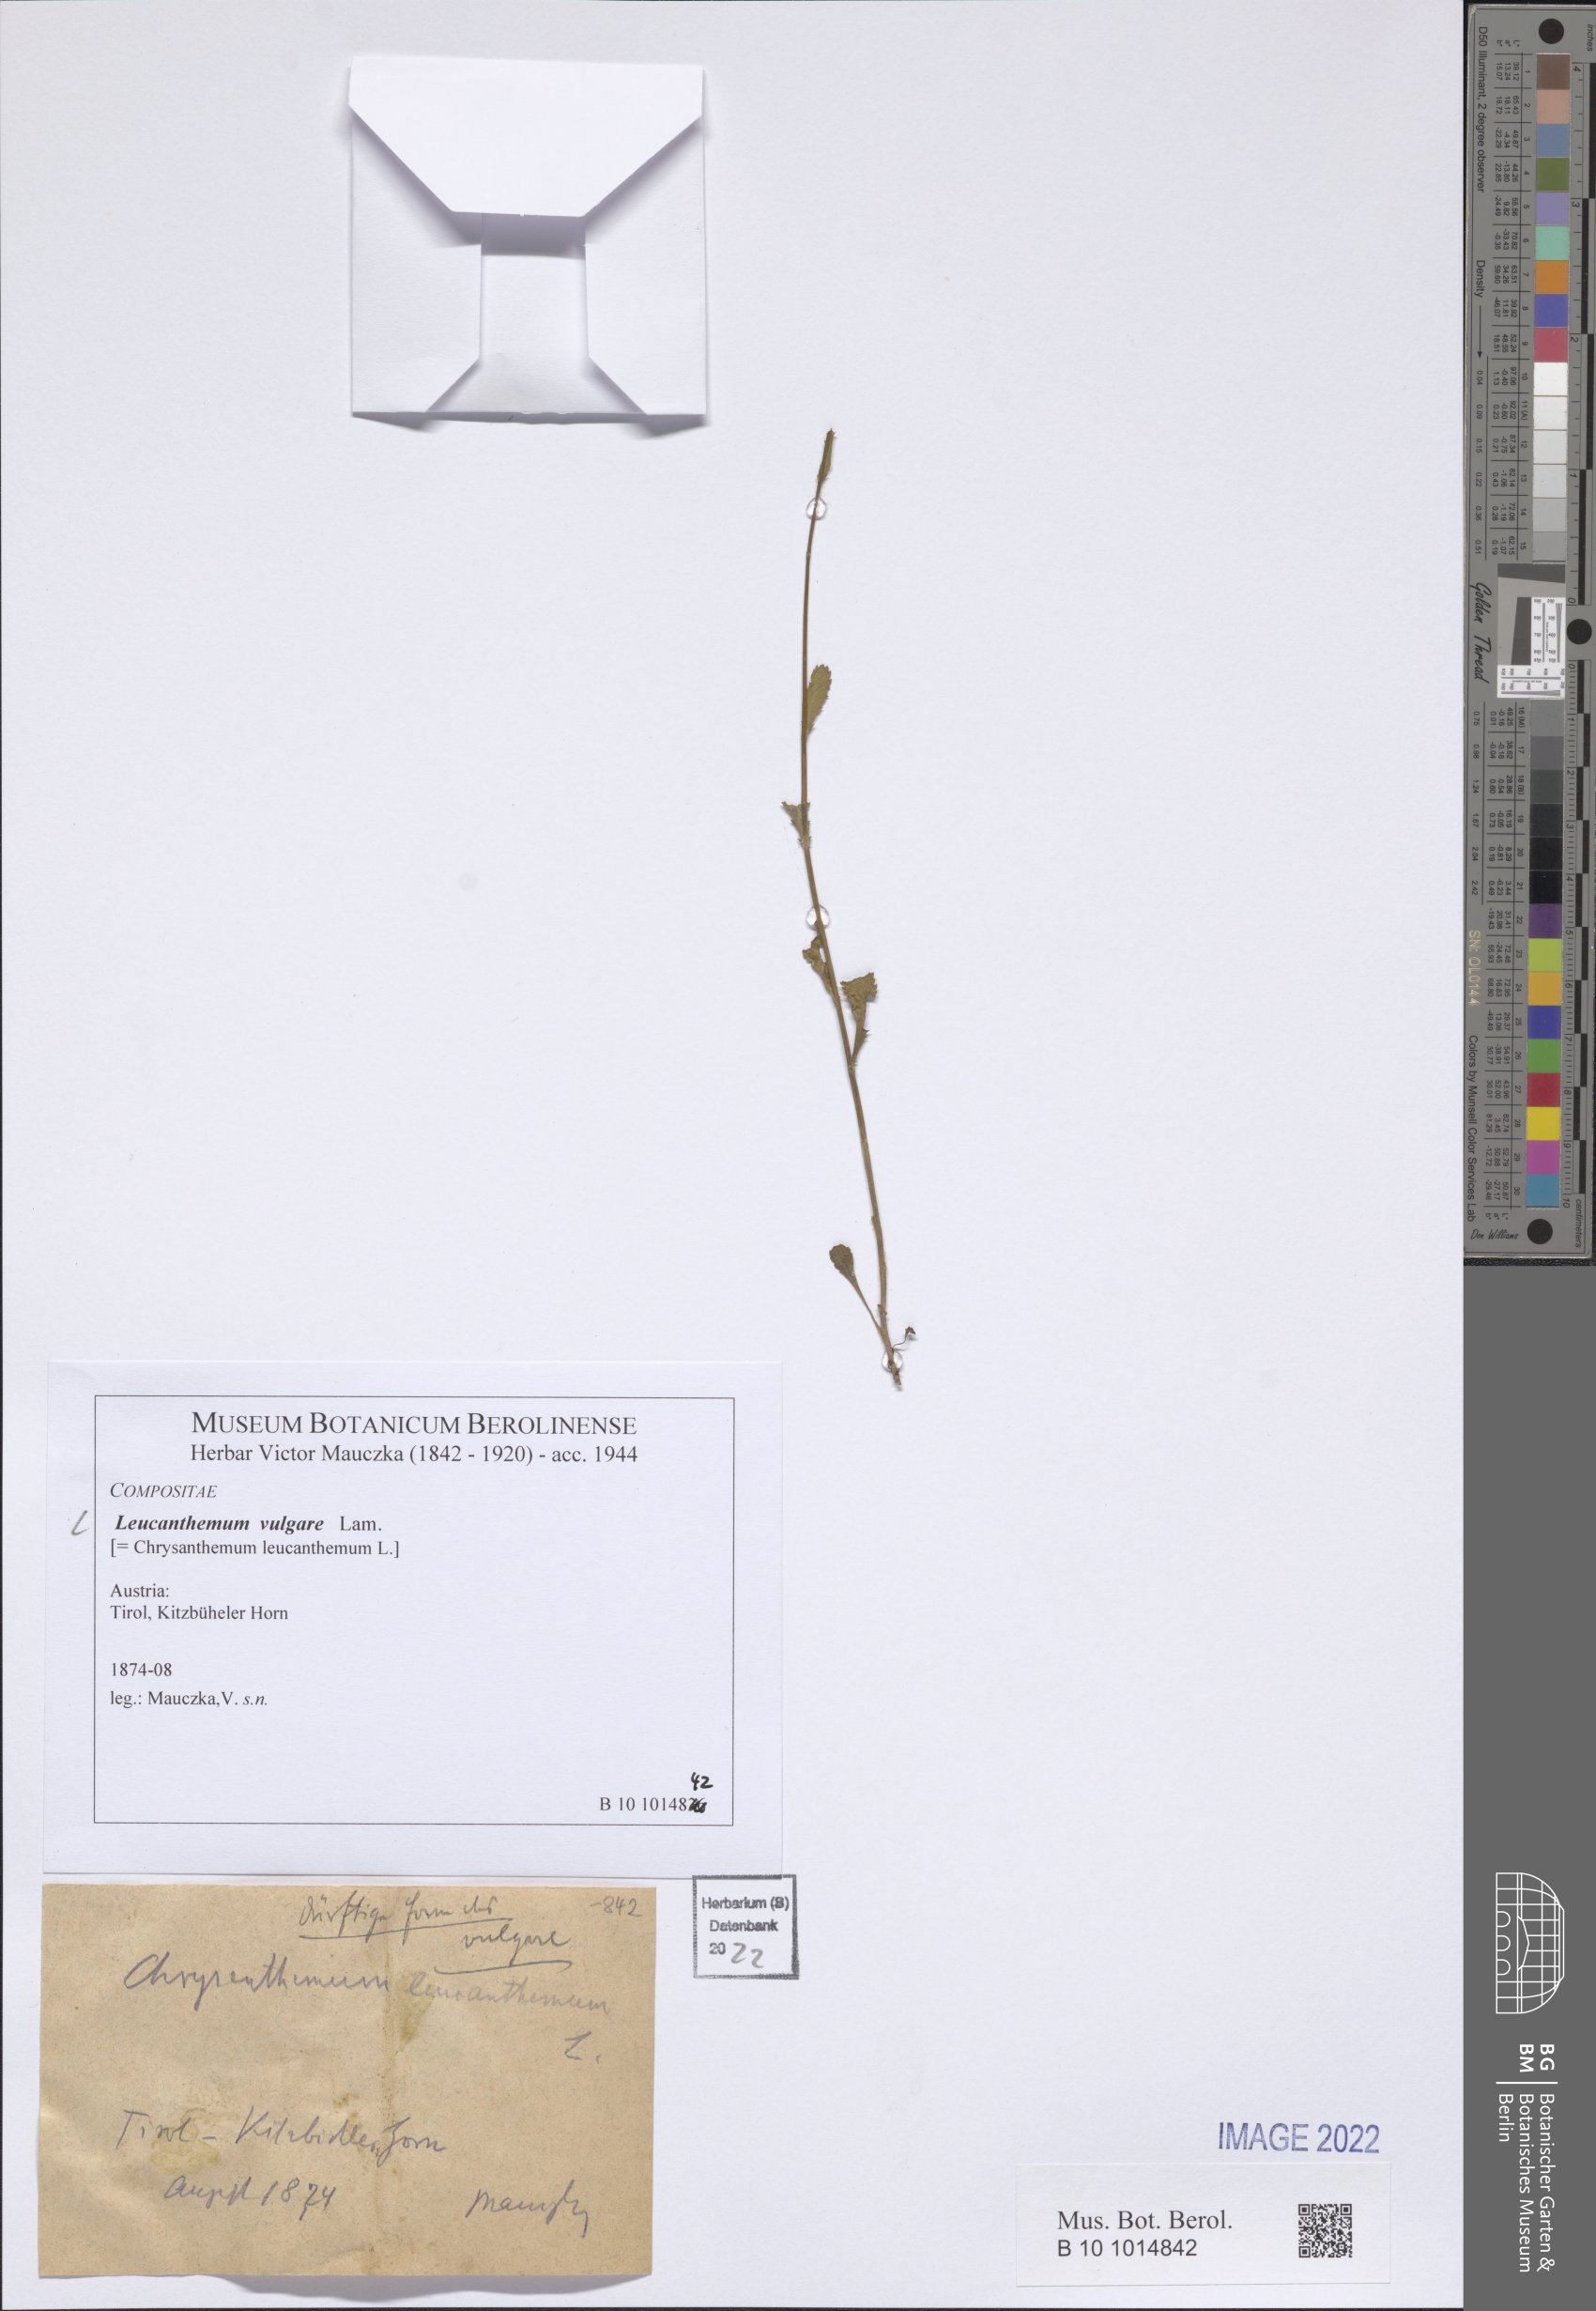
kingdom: Plantae
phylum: Tracheophyta
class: Magnoliopsida
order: Asterales
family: Asteraceae
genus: Leucanthemum
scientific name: Leucanthemum ircutianum
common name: Daisy
